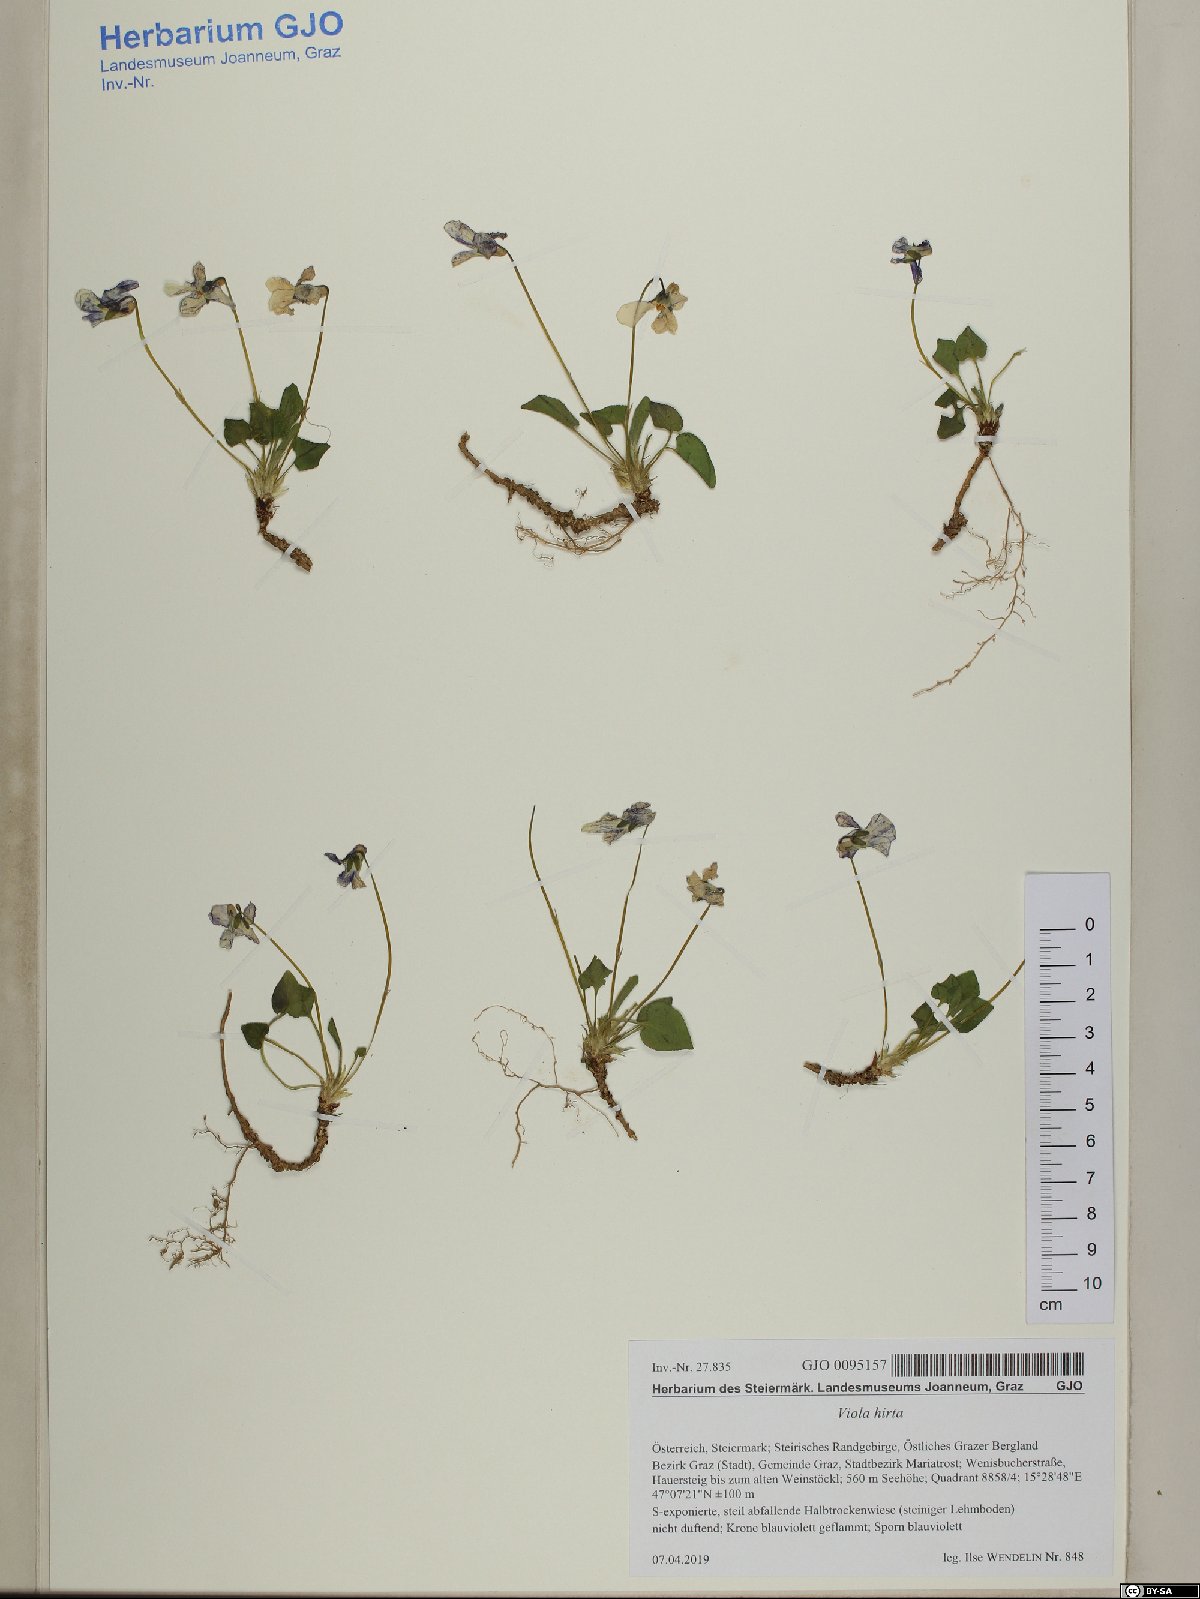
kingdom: Plantae
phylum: Tracheophyta
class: Magnoliopsida
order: Malpighiales
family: Violaceae
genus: Viola
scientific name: Viola hirta
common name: Hairy violet
